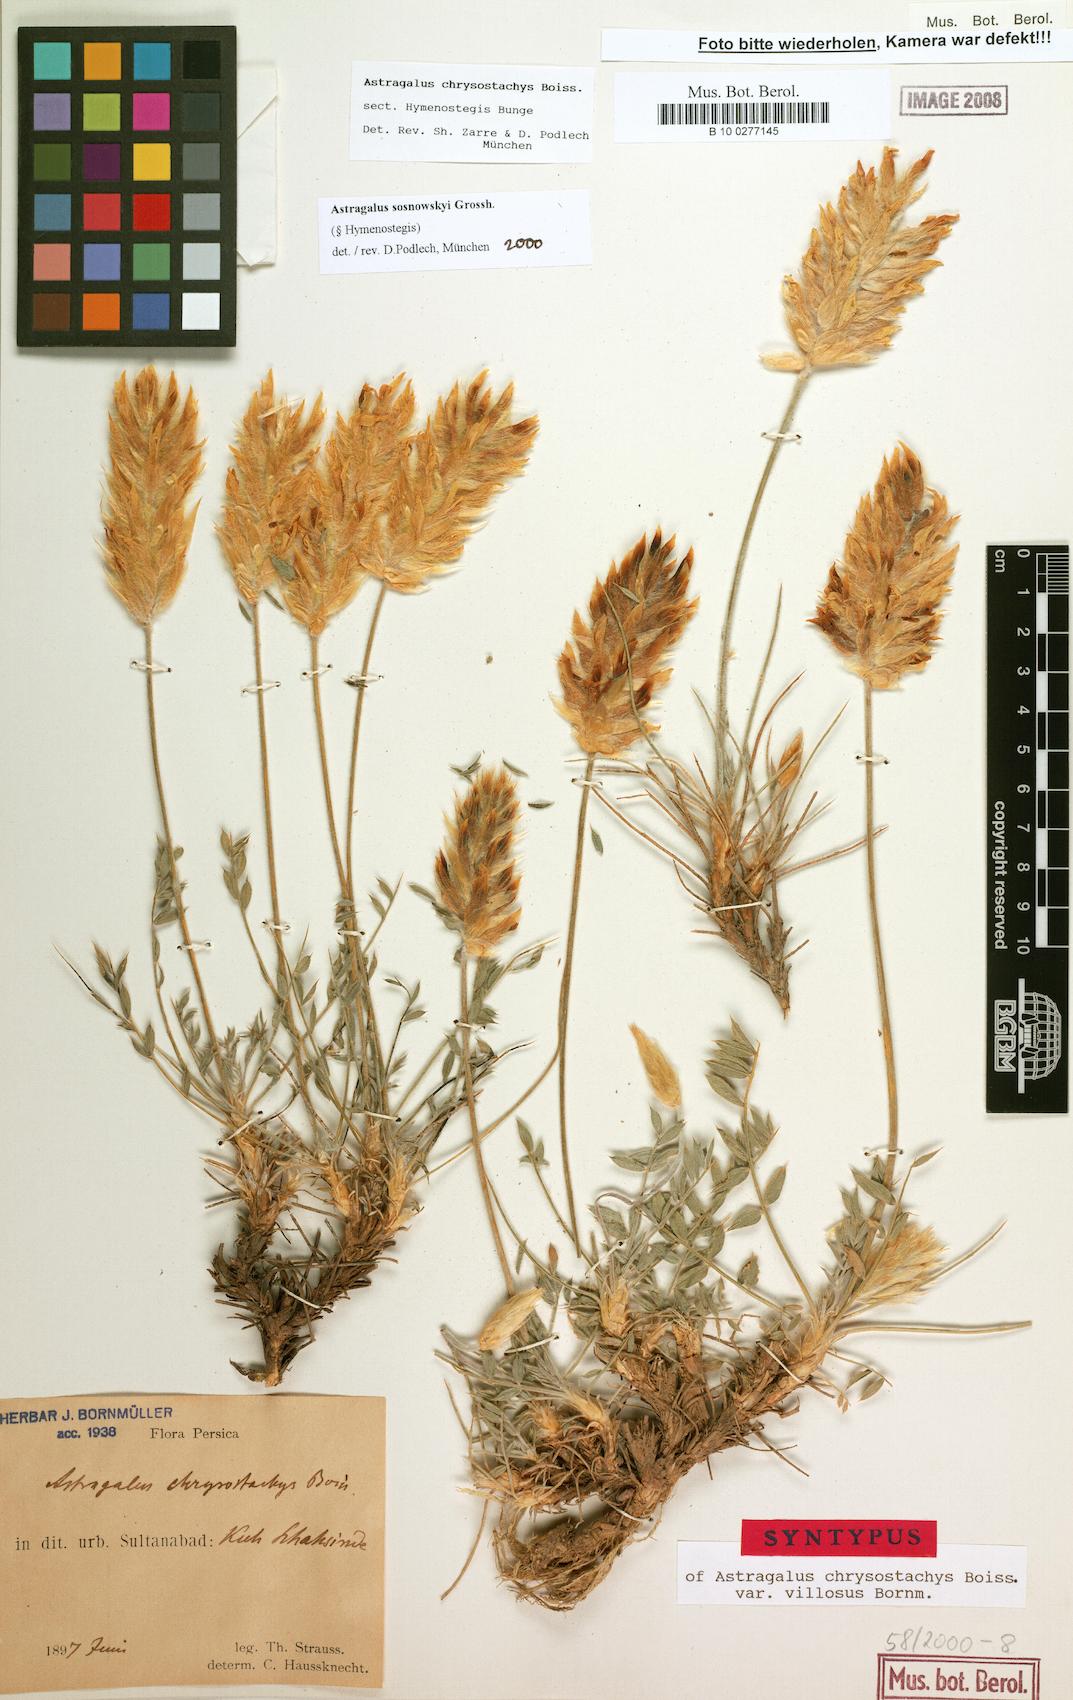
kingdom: Plantae
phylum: Tracheophyta
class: Magnoliopsida
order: Fabales
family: Fabaceae
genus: Astragalus
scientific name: Astragalus sosnowskyi
